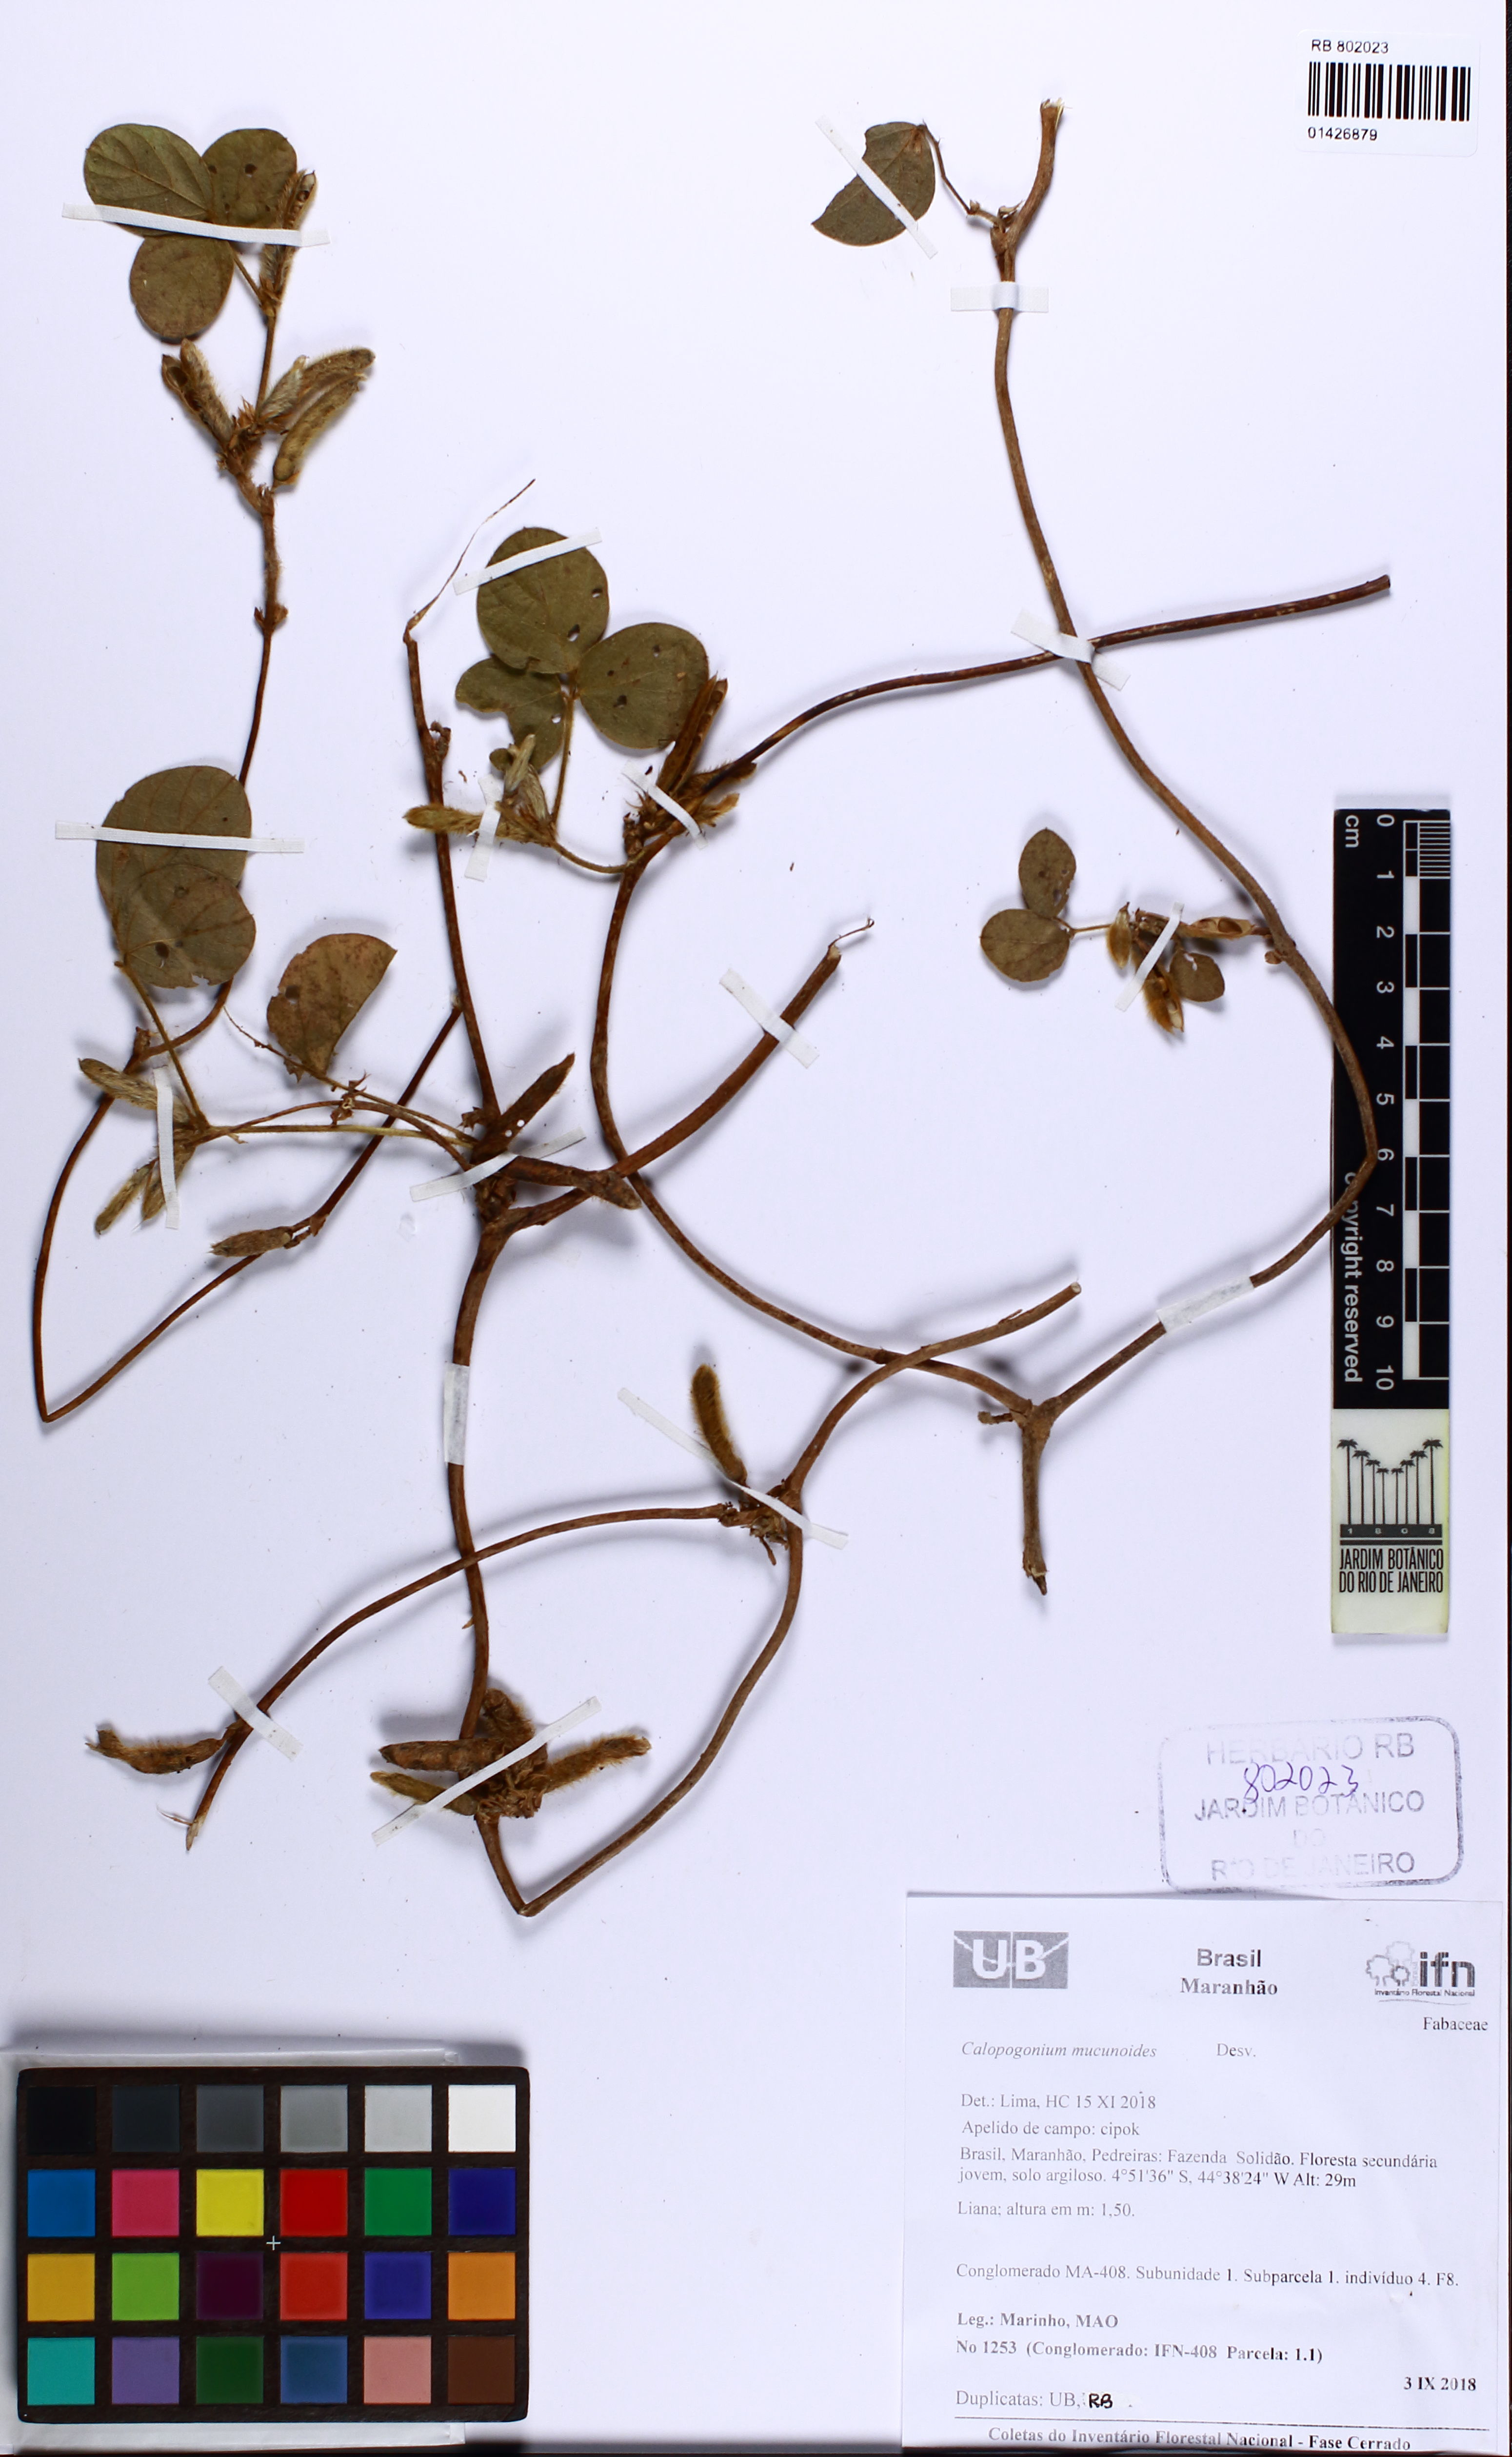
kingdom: Plantae
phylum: Tracheophyta
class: Magnoliopsida
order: Fabales
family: Fabaceae
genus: Calopogonium
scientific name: Calopogonium mucunoides
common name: Calopo
